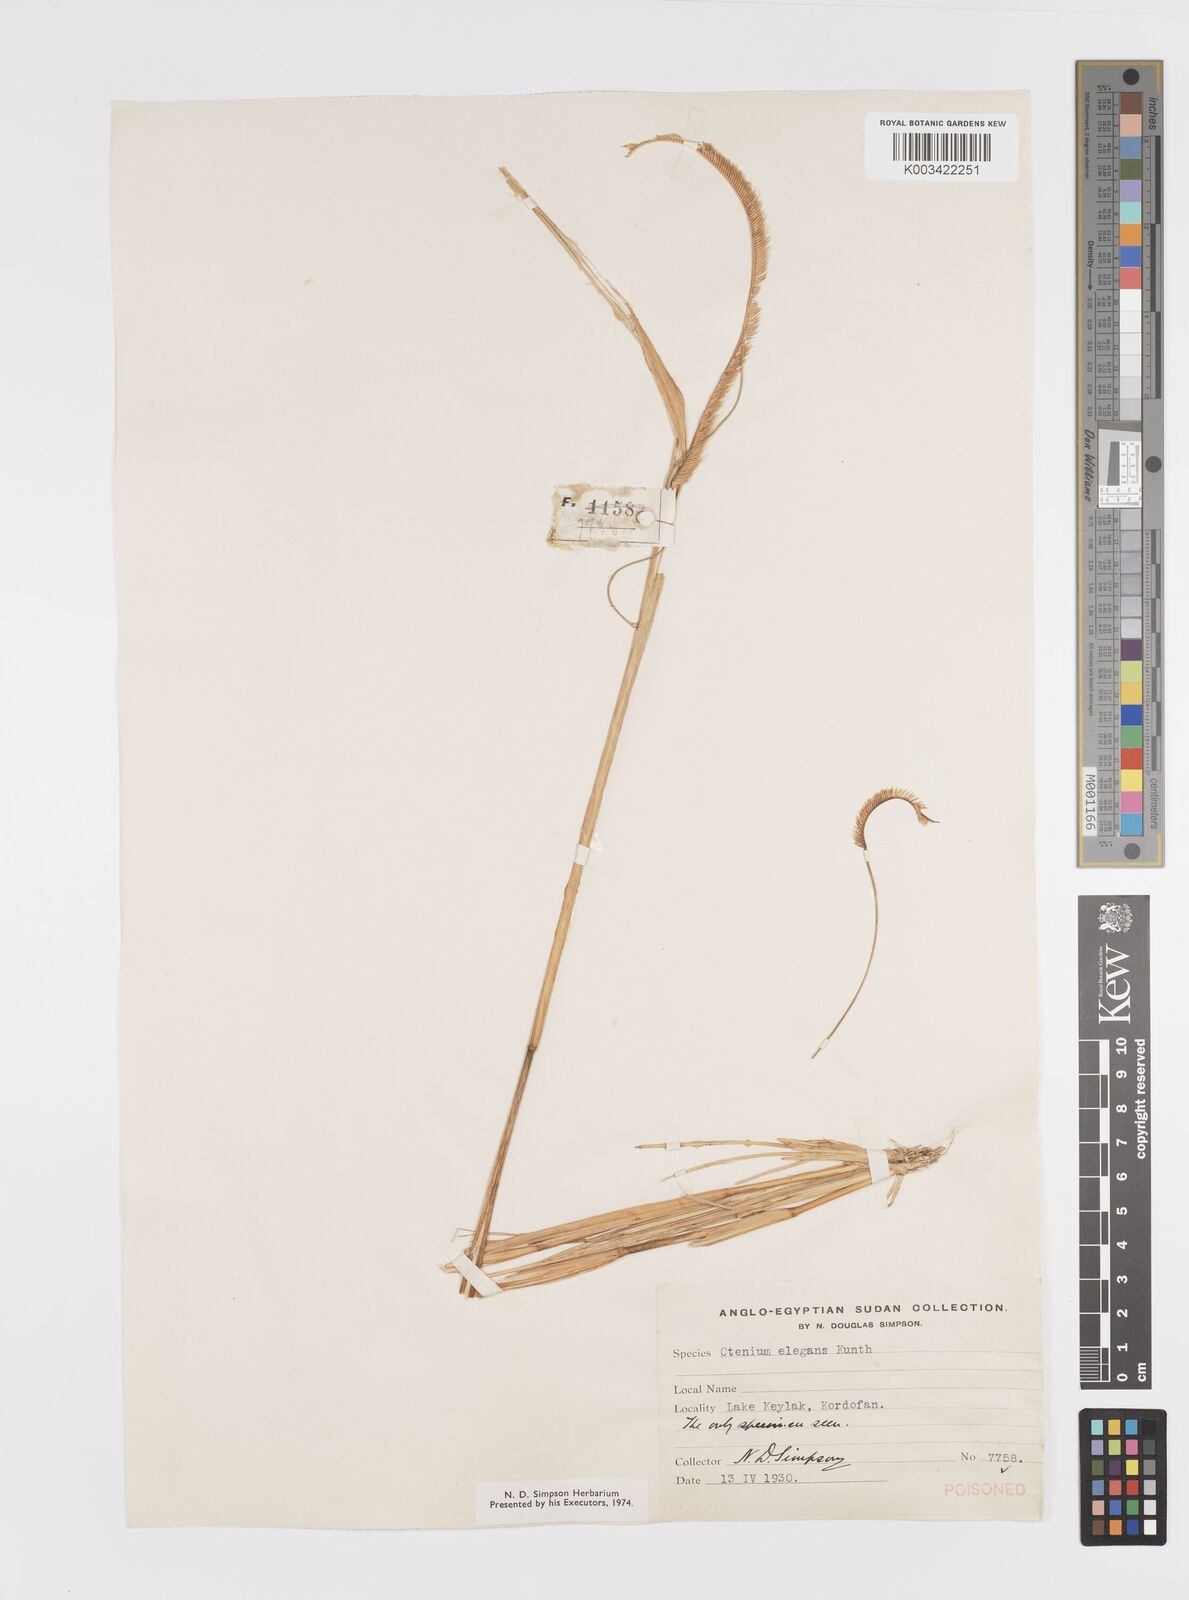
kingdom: Plantae
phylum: Tracheophyta
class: Liliopsida
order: Poales
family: Poaceae
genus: Ctenium
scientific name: Ctenium elegans
